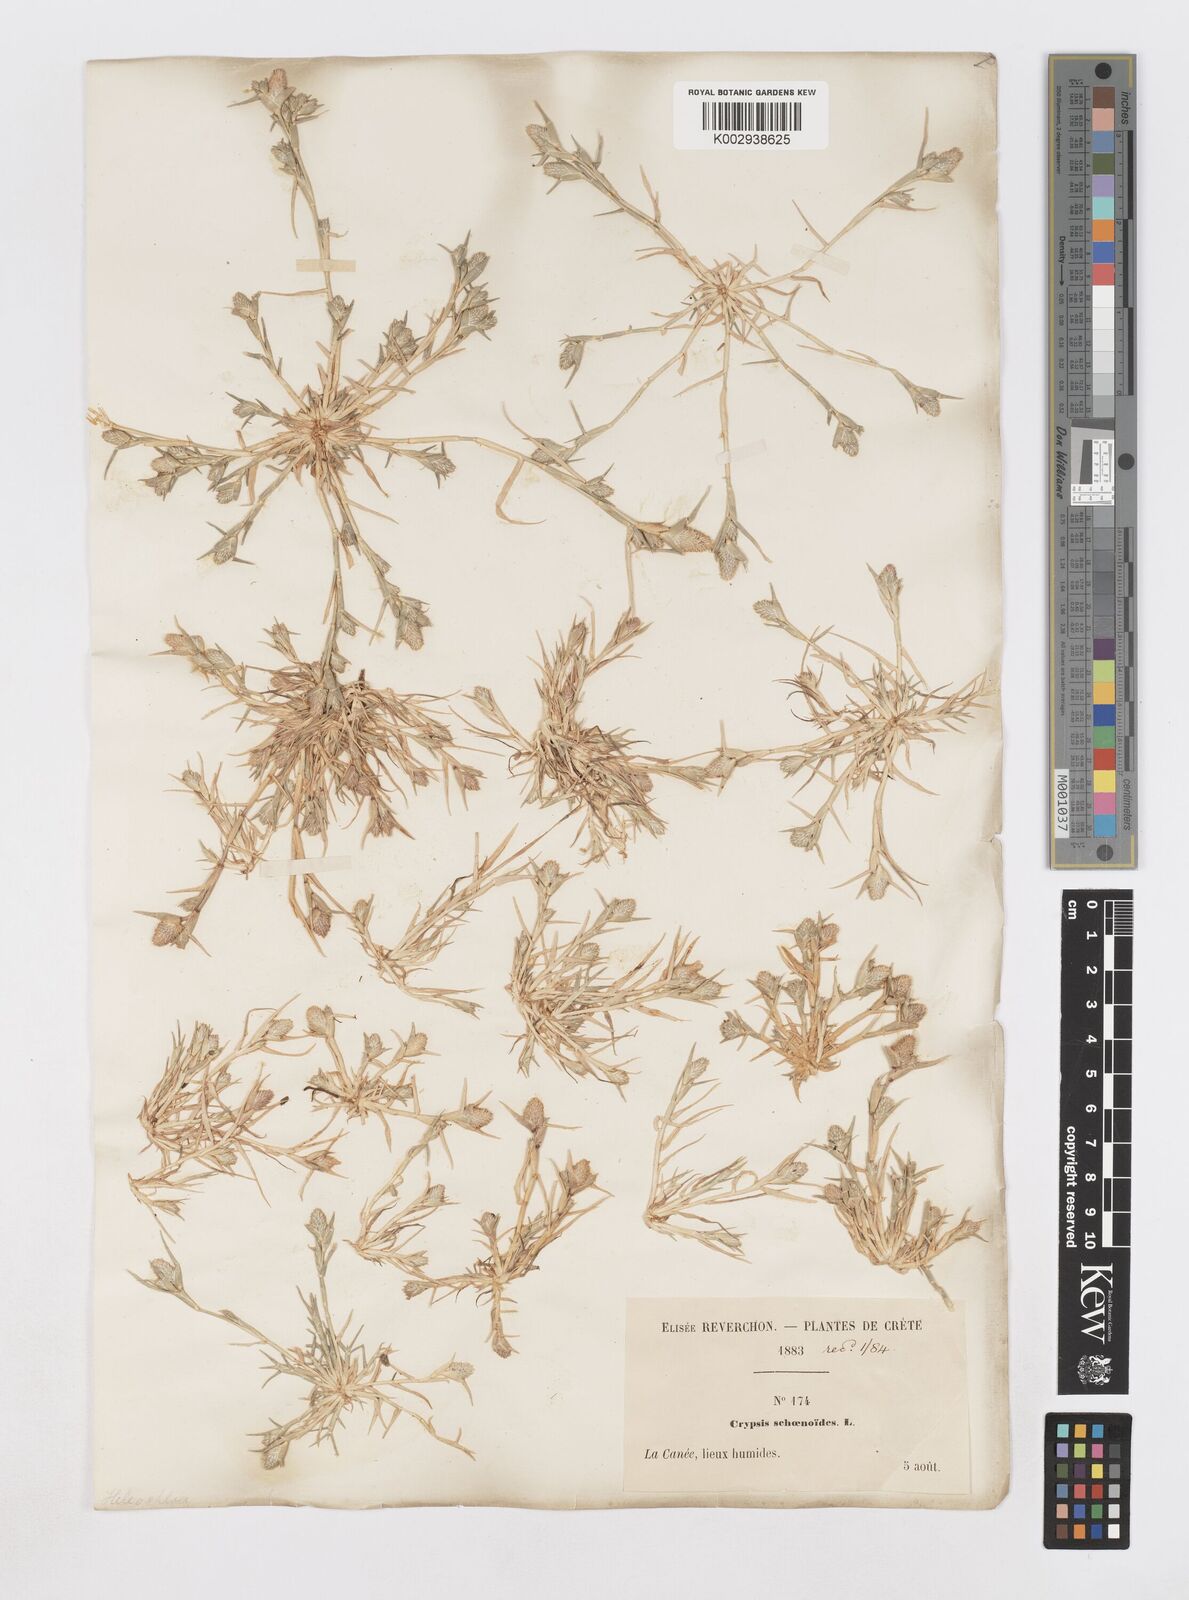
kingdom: Plantae
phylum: Tracheophyta
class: Liliopsida
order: Poales
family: Poaceae
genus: Sporobolus
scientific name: Sporobolus schoenoides
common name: Rush-like timothy
